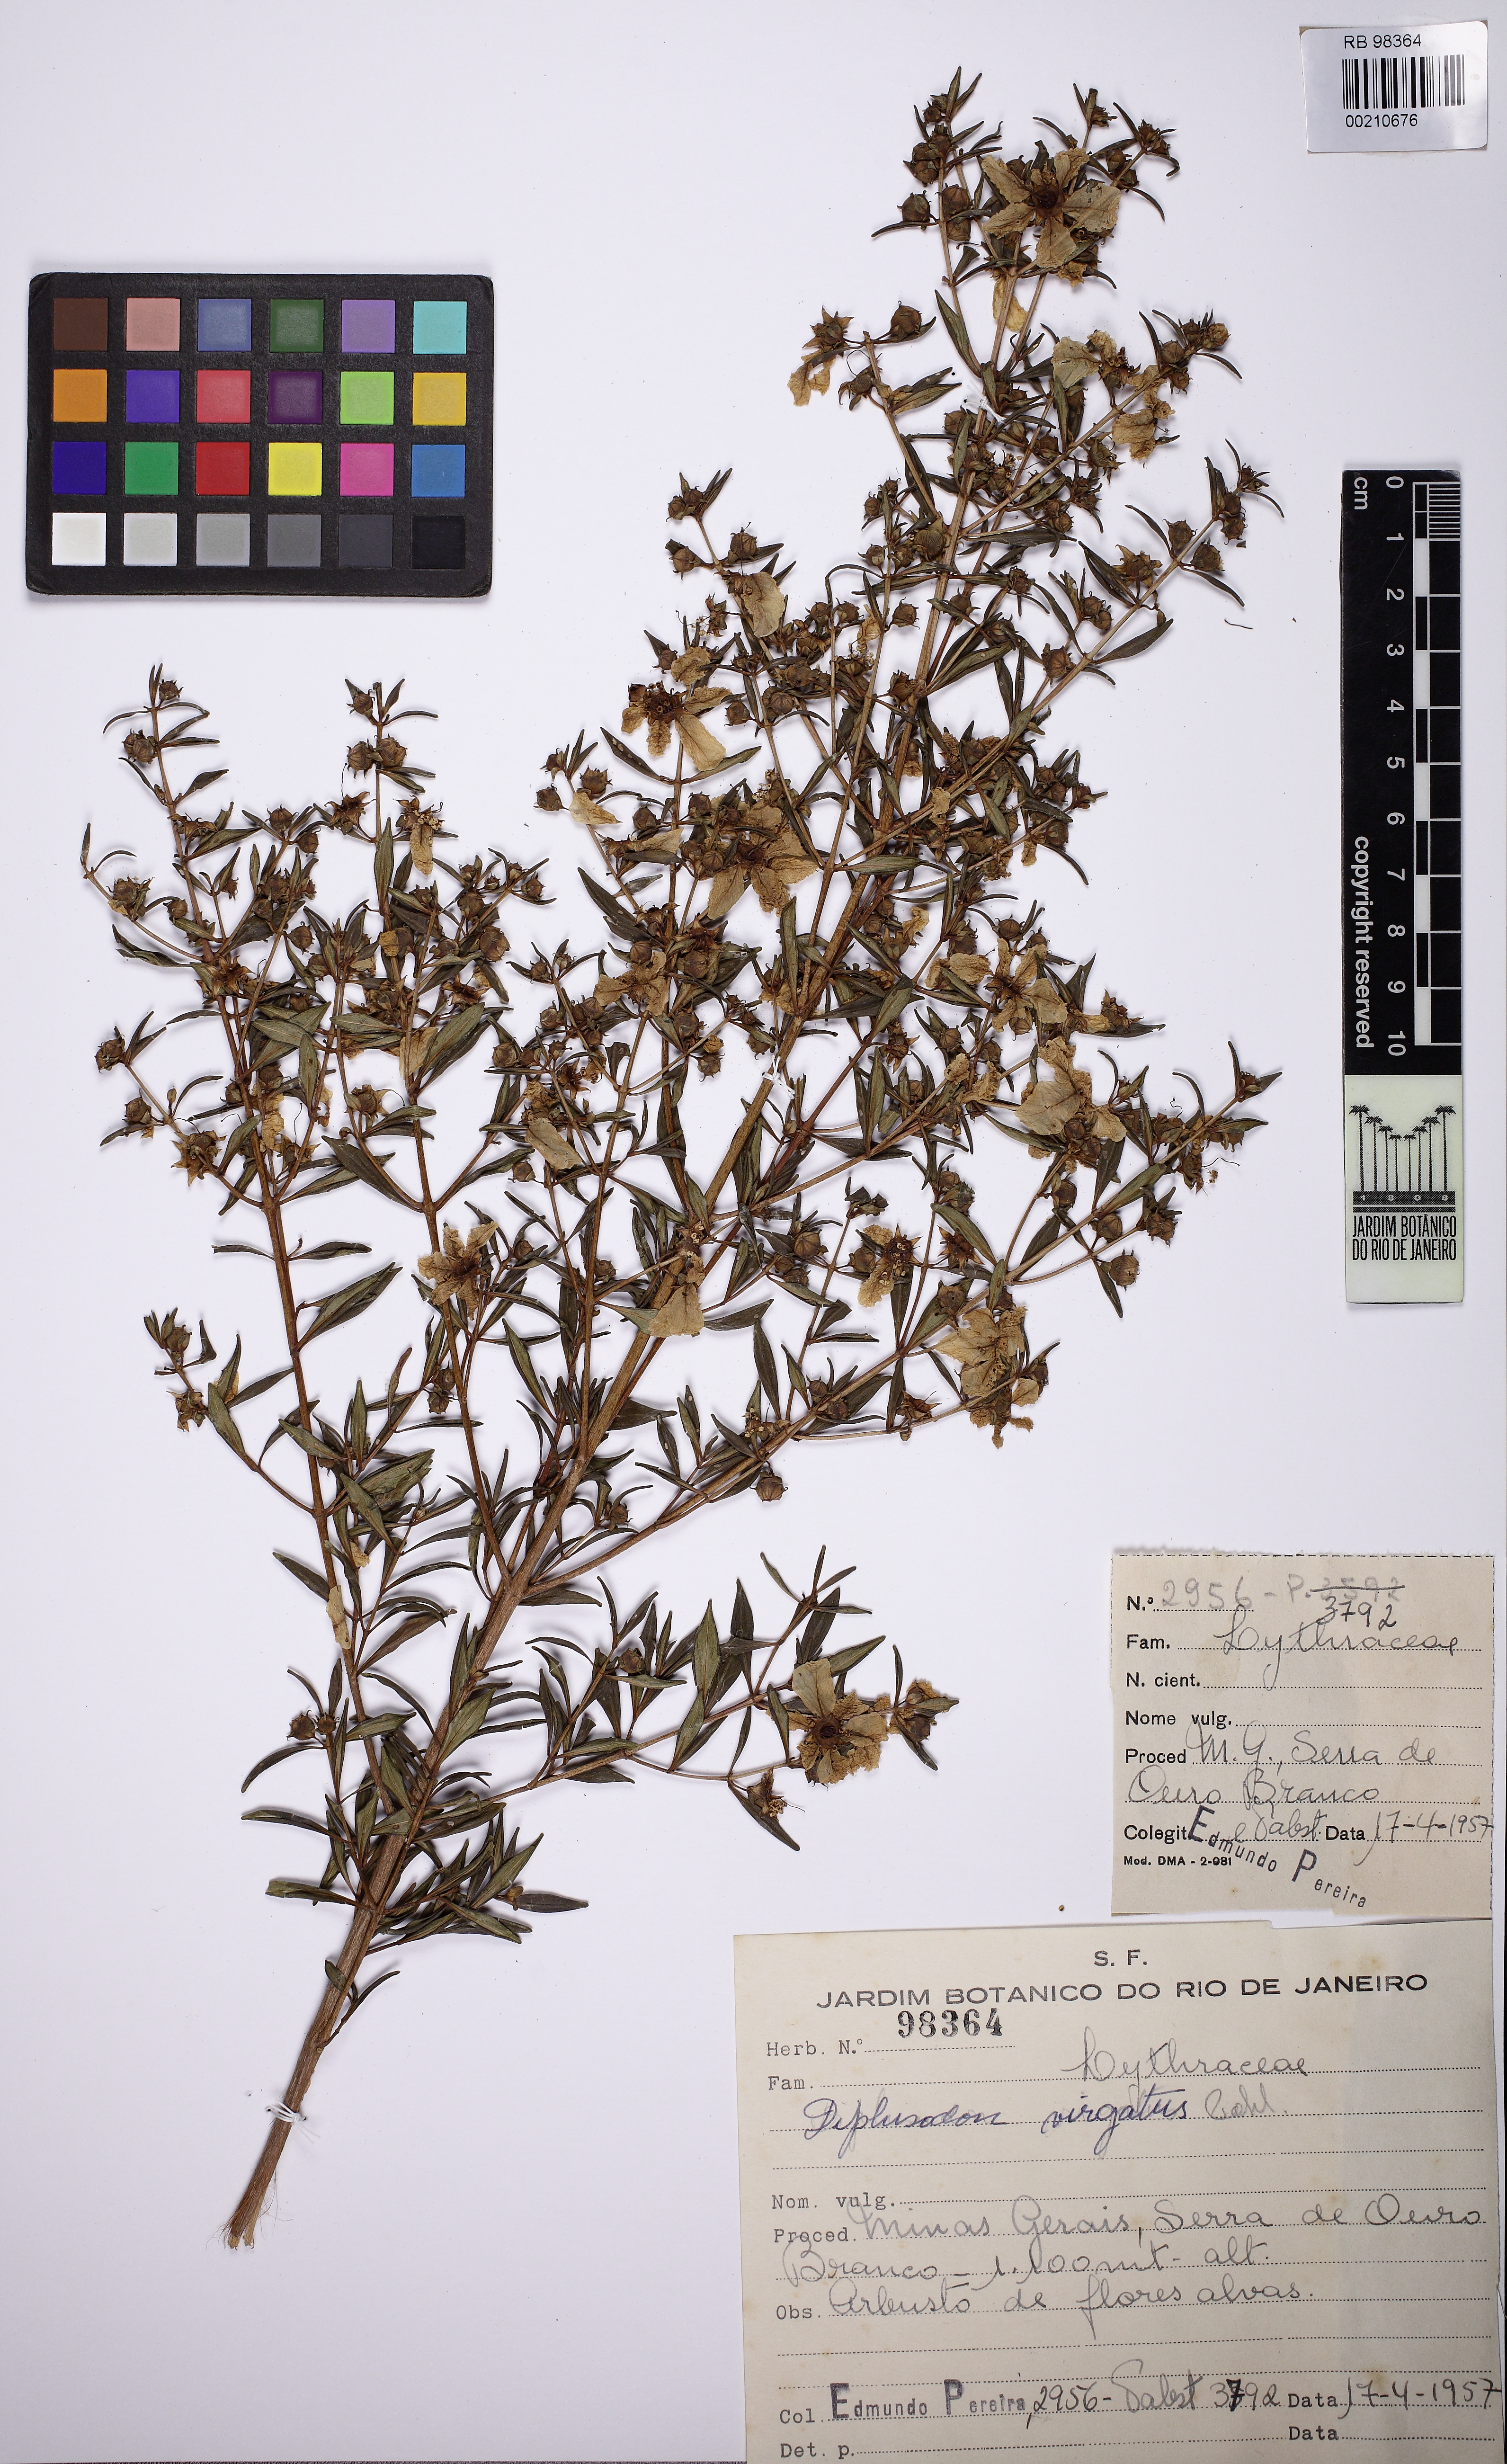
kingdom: Plantae
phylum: Tracheophyta
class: Magnoliopsida
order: Myrtales
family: Lythraceae
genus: Diplusodon
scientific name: Diplusodon virgatus
